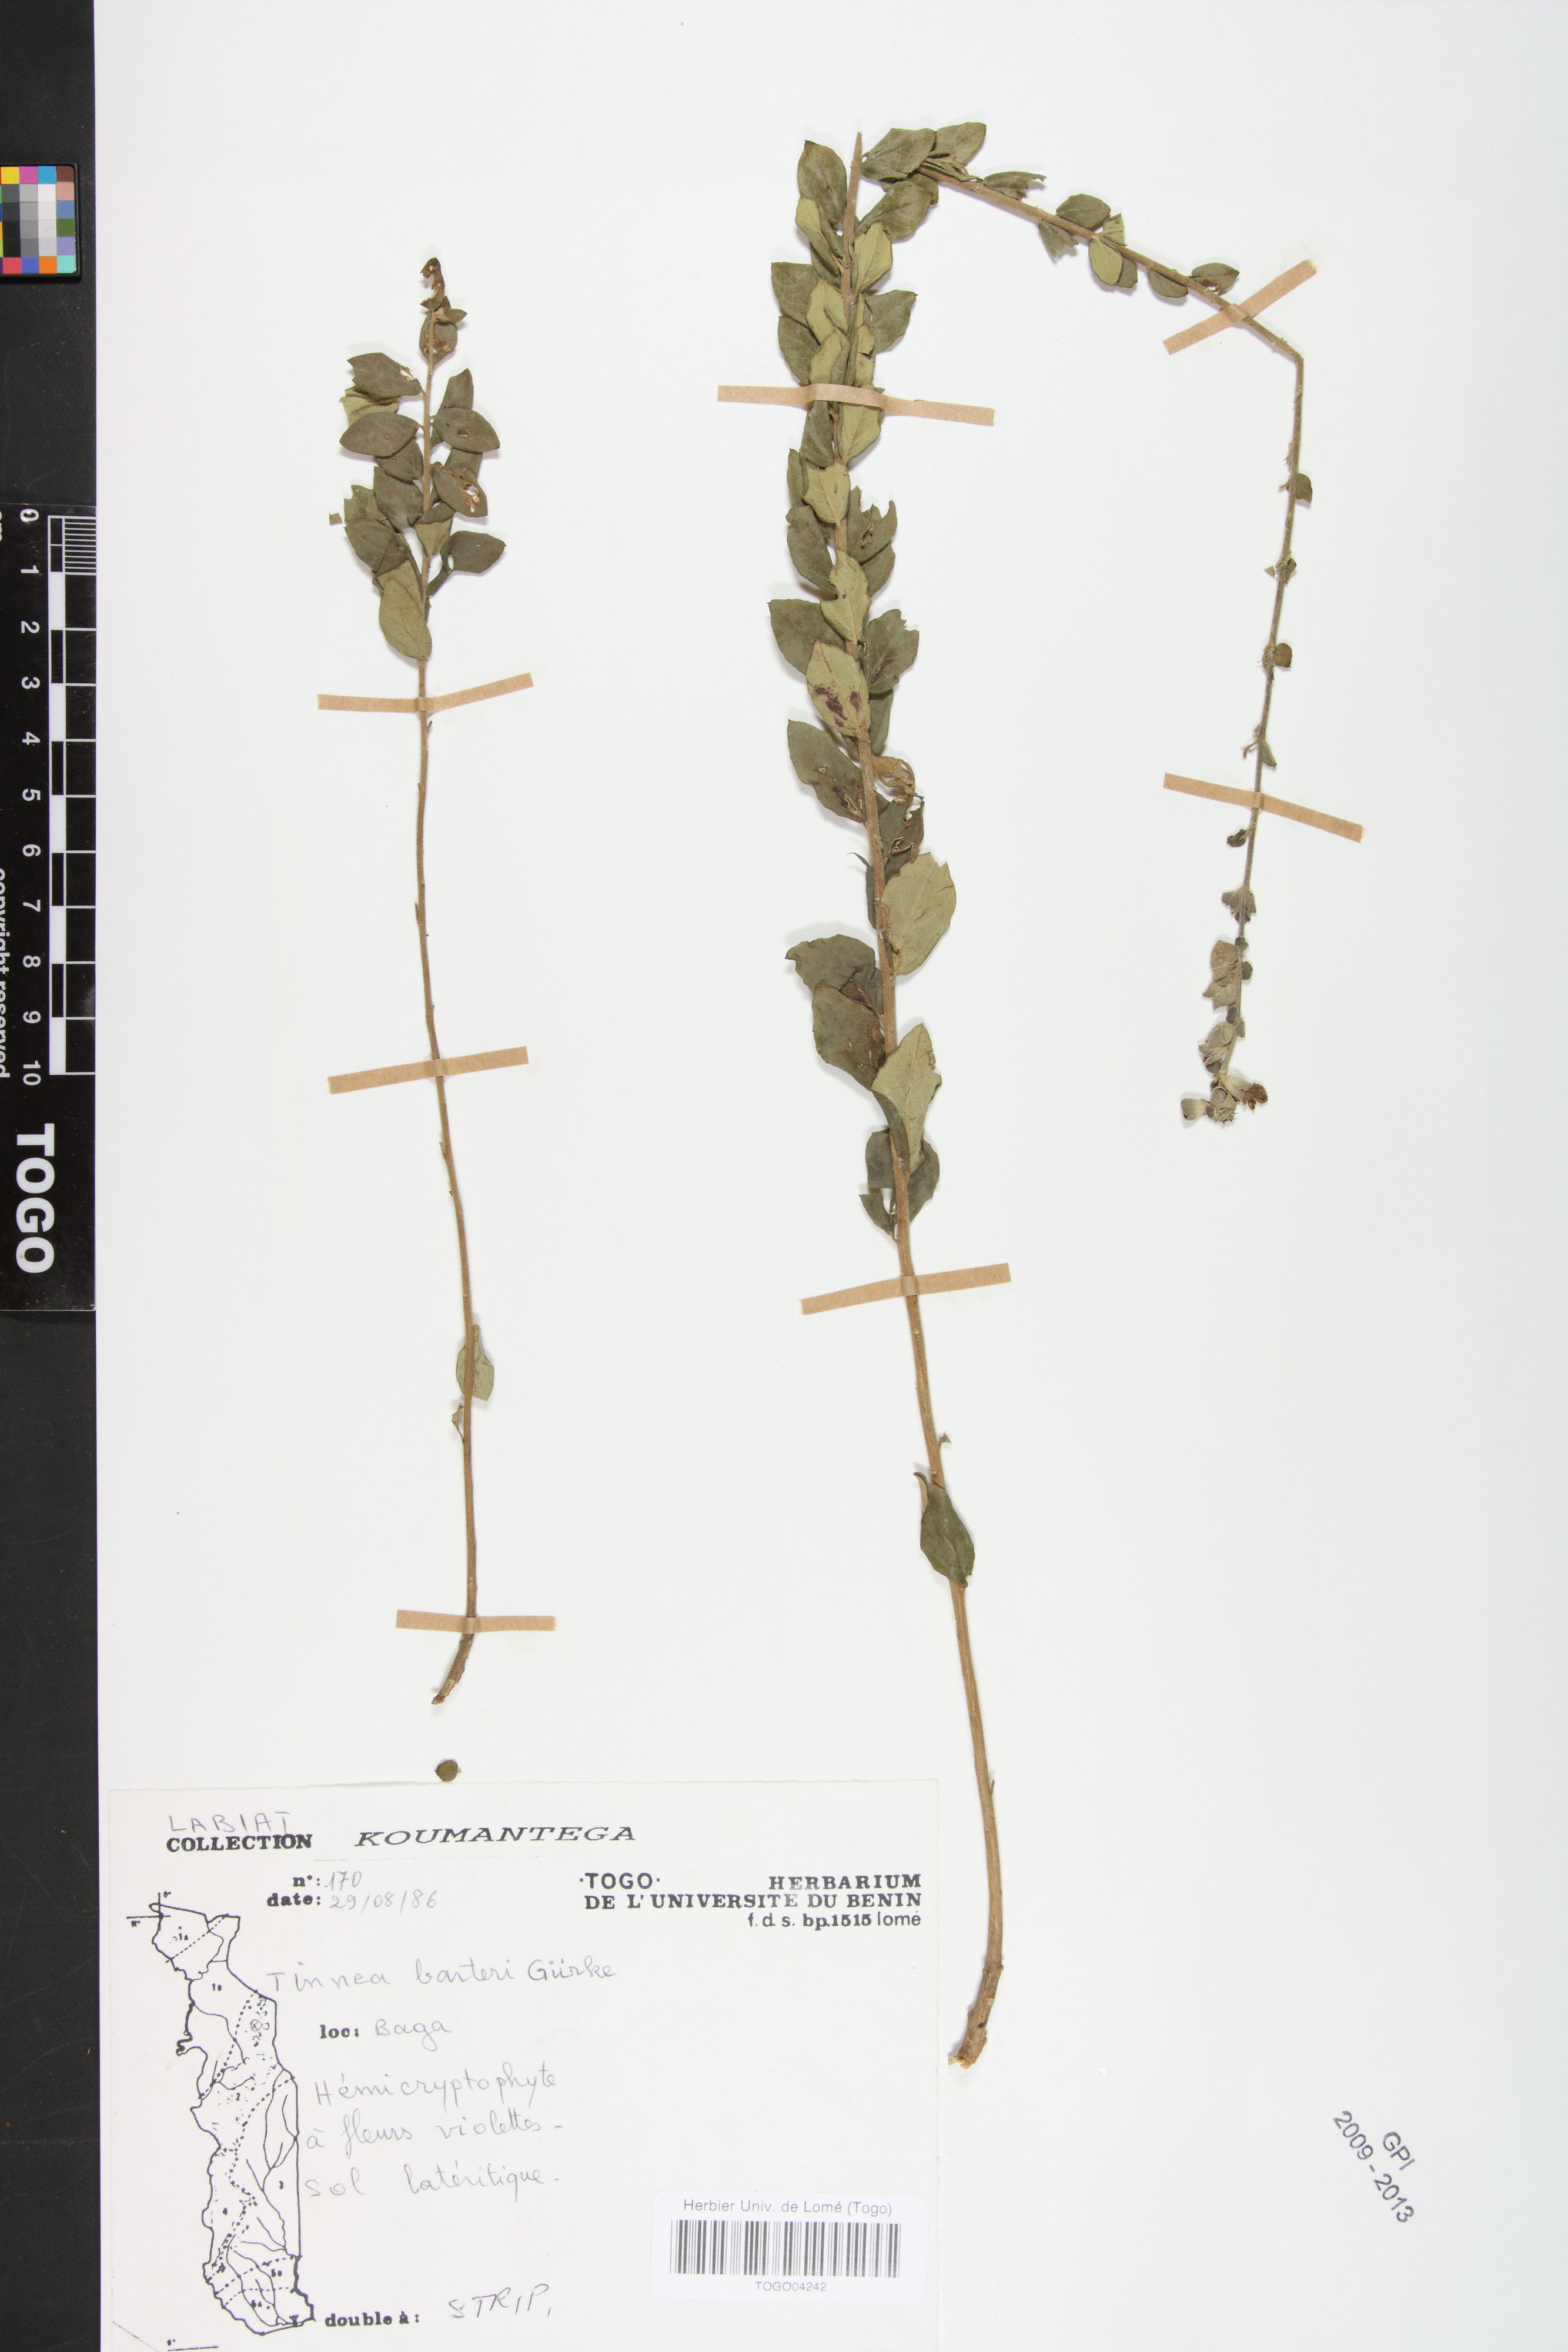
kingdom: Plantae
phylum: Tracheophyta
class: Magnoliopsida
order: Lamiales
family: Lamiaceae
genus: Tinnea
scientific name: Tinnea barteri
